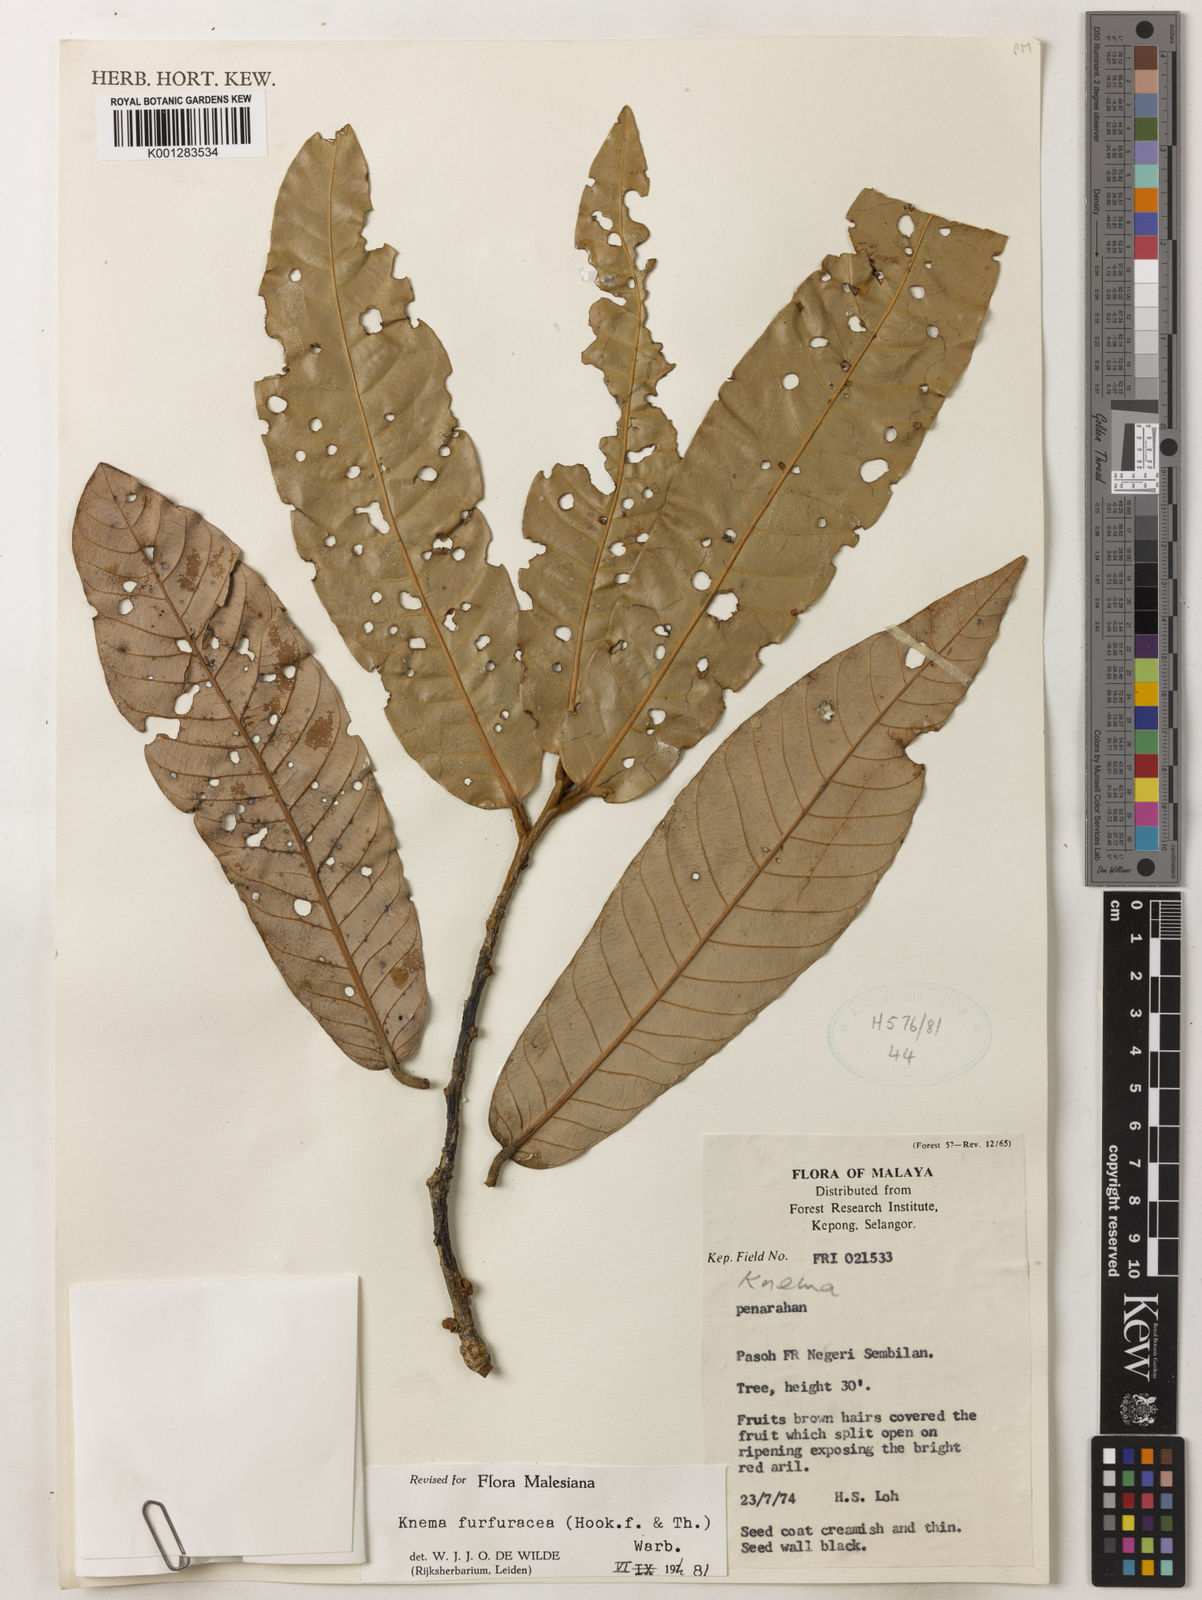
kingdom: Plantae
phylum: Tracheophyta
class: Magnoliopsida
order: Magnoliales
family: Myristicaceae
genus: Knema
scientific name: Knema furfuracea
